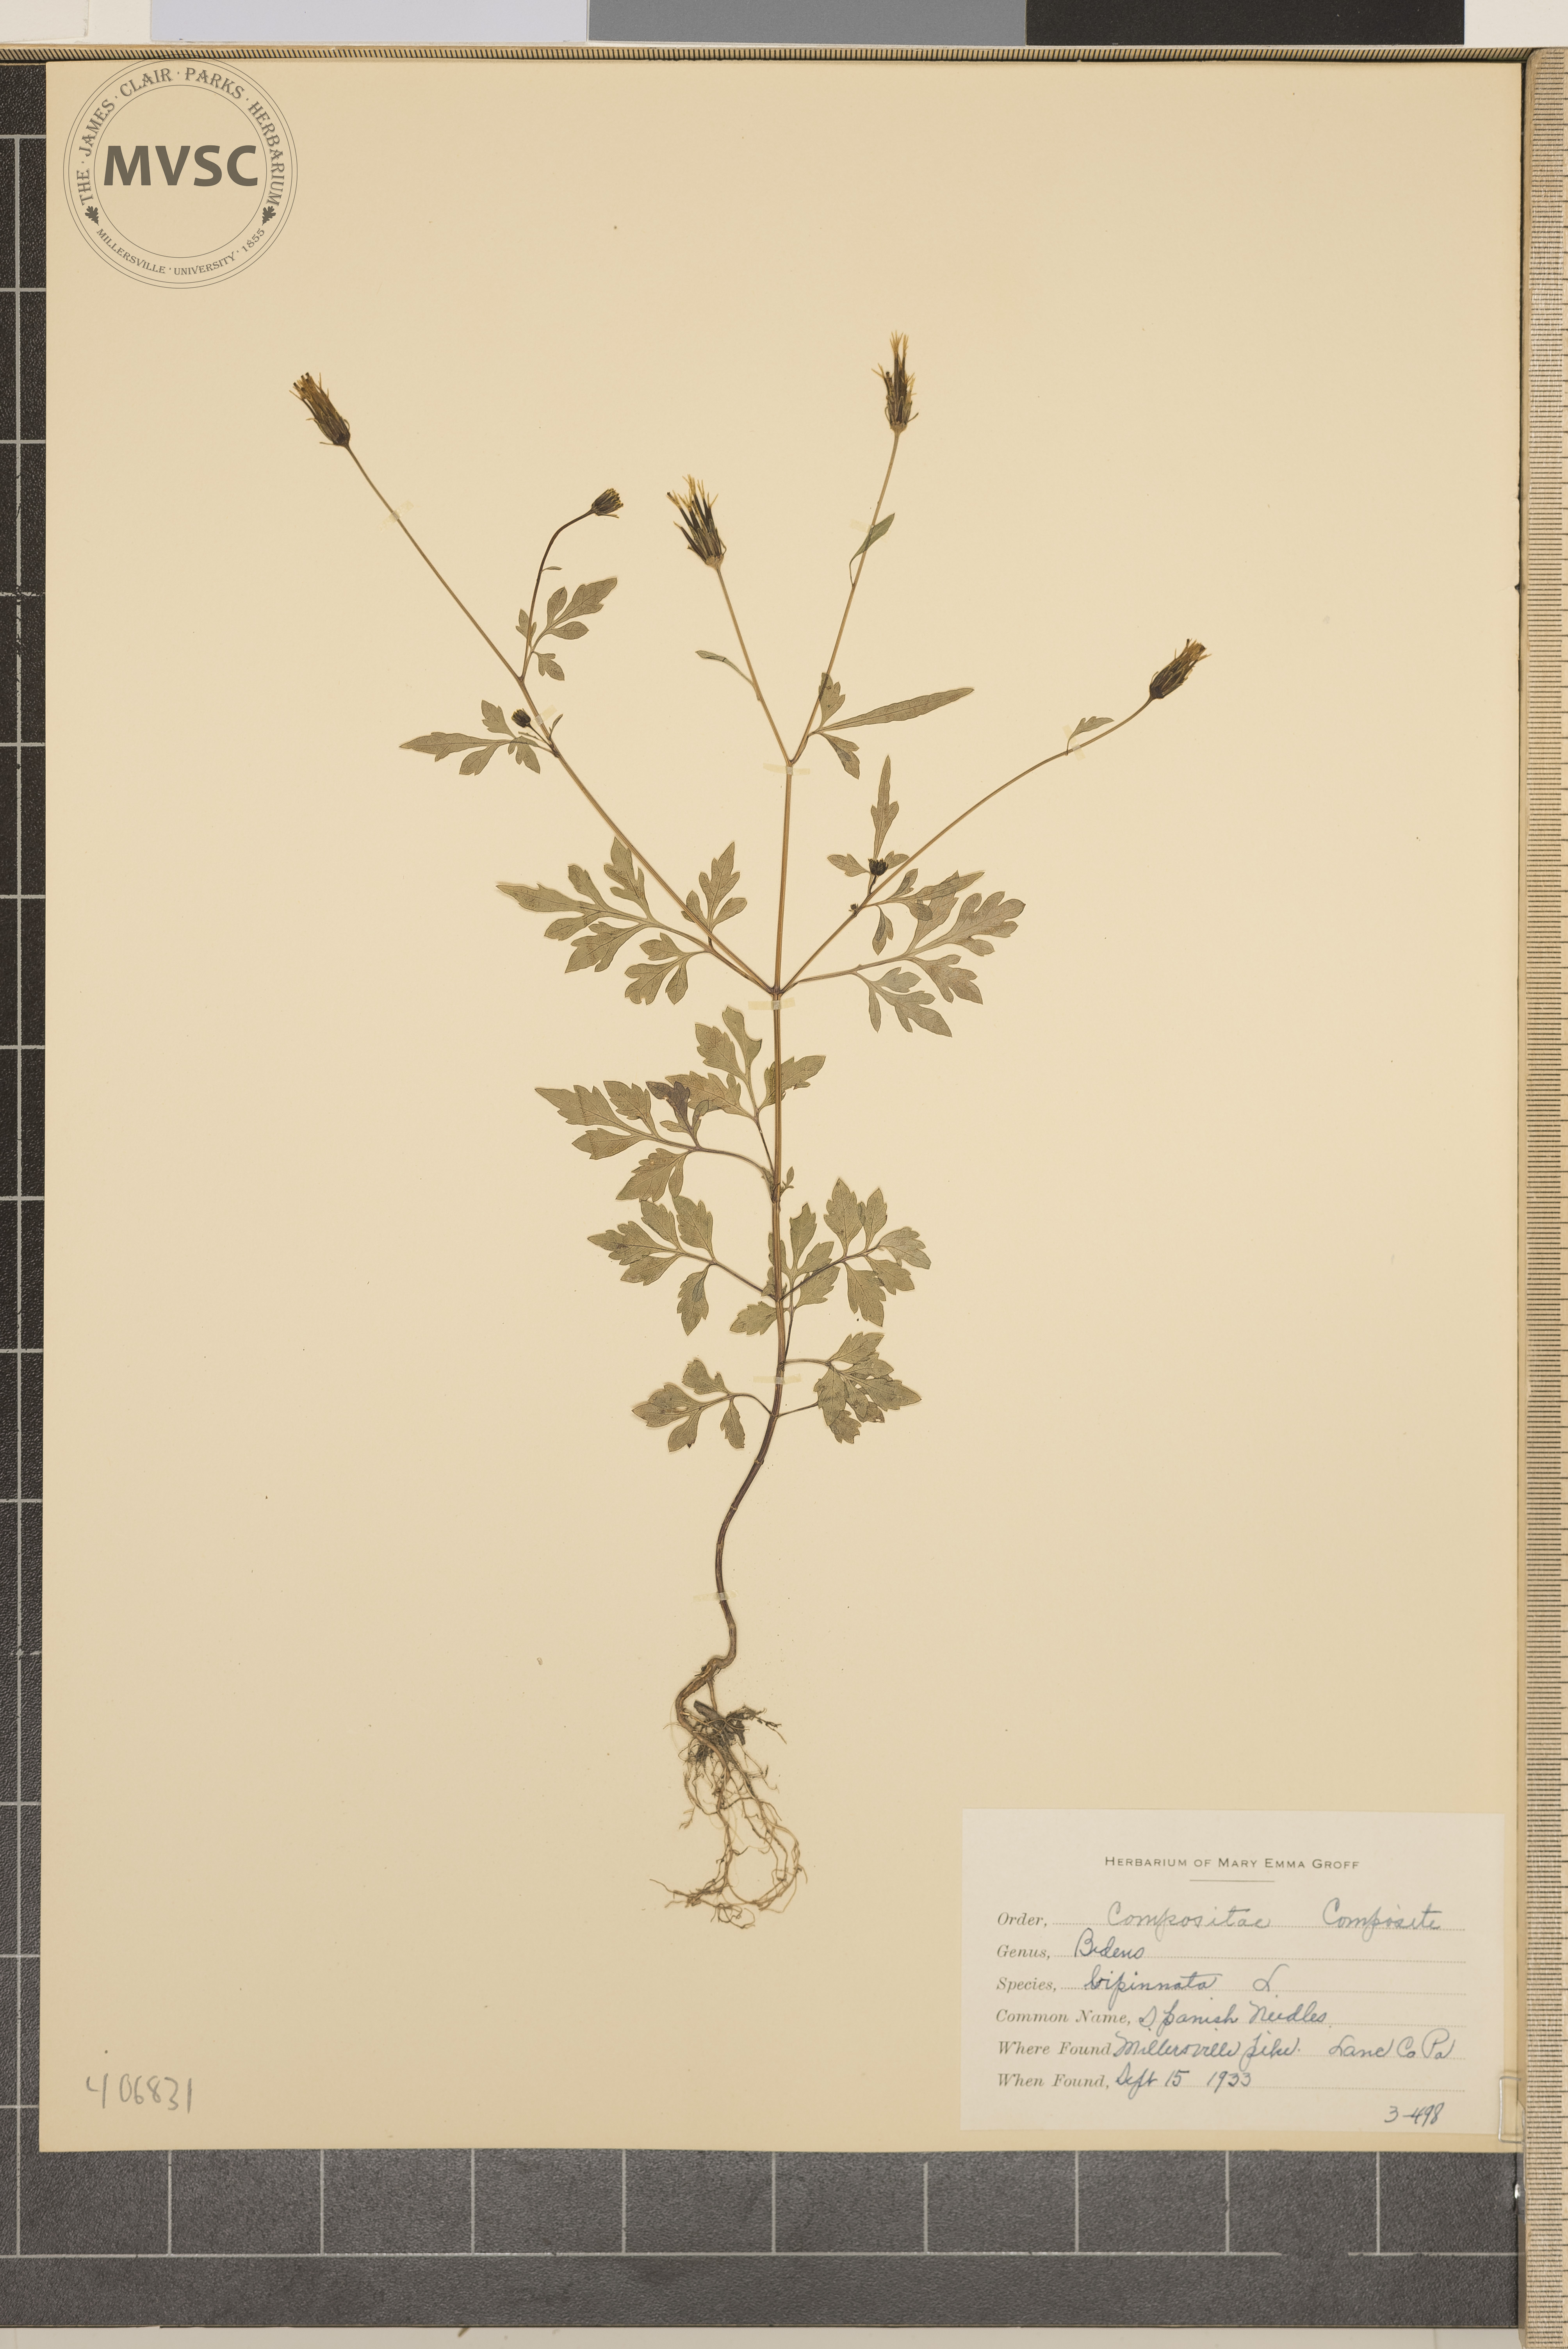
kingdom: Plantae
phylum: Tracheophyta
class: Magnoliopsida
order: Asterales
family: Asteraceae
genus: Bidens
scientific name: Bidens bipinnata
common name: Spanish Needles
